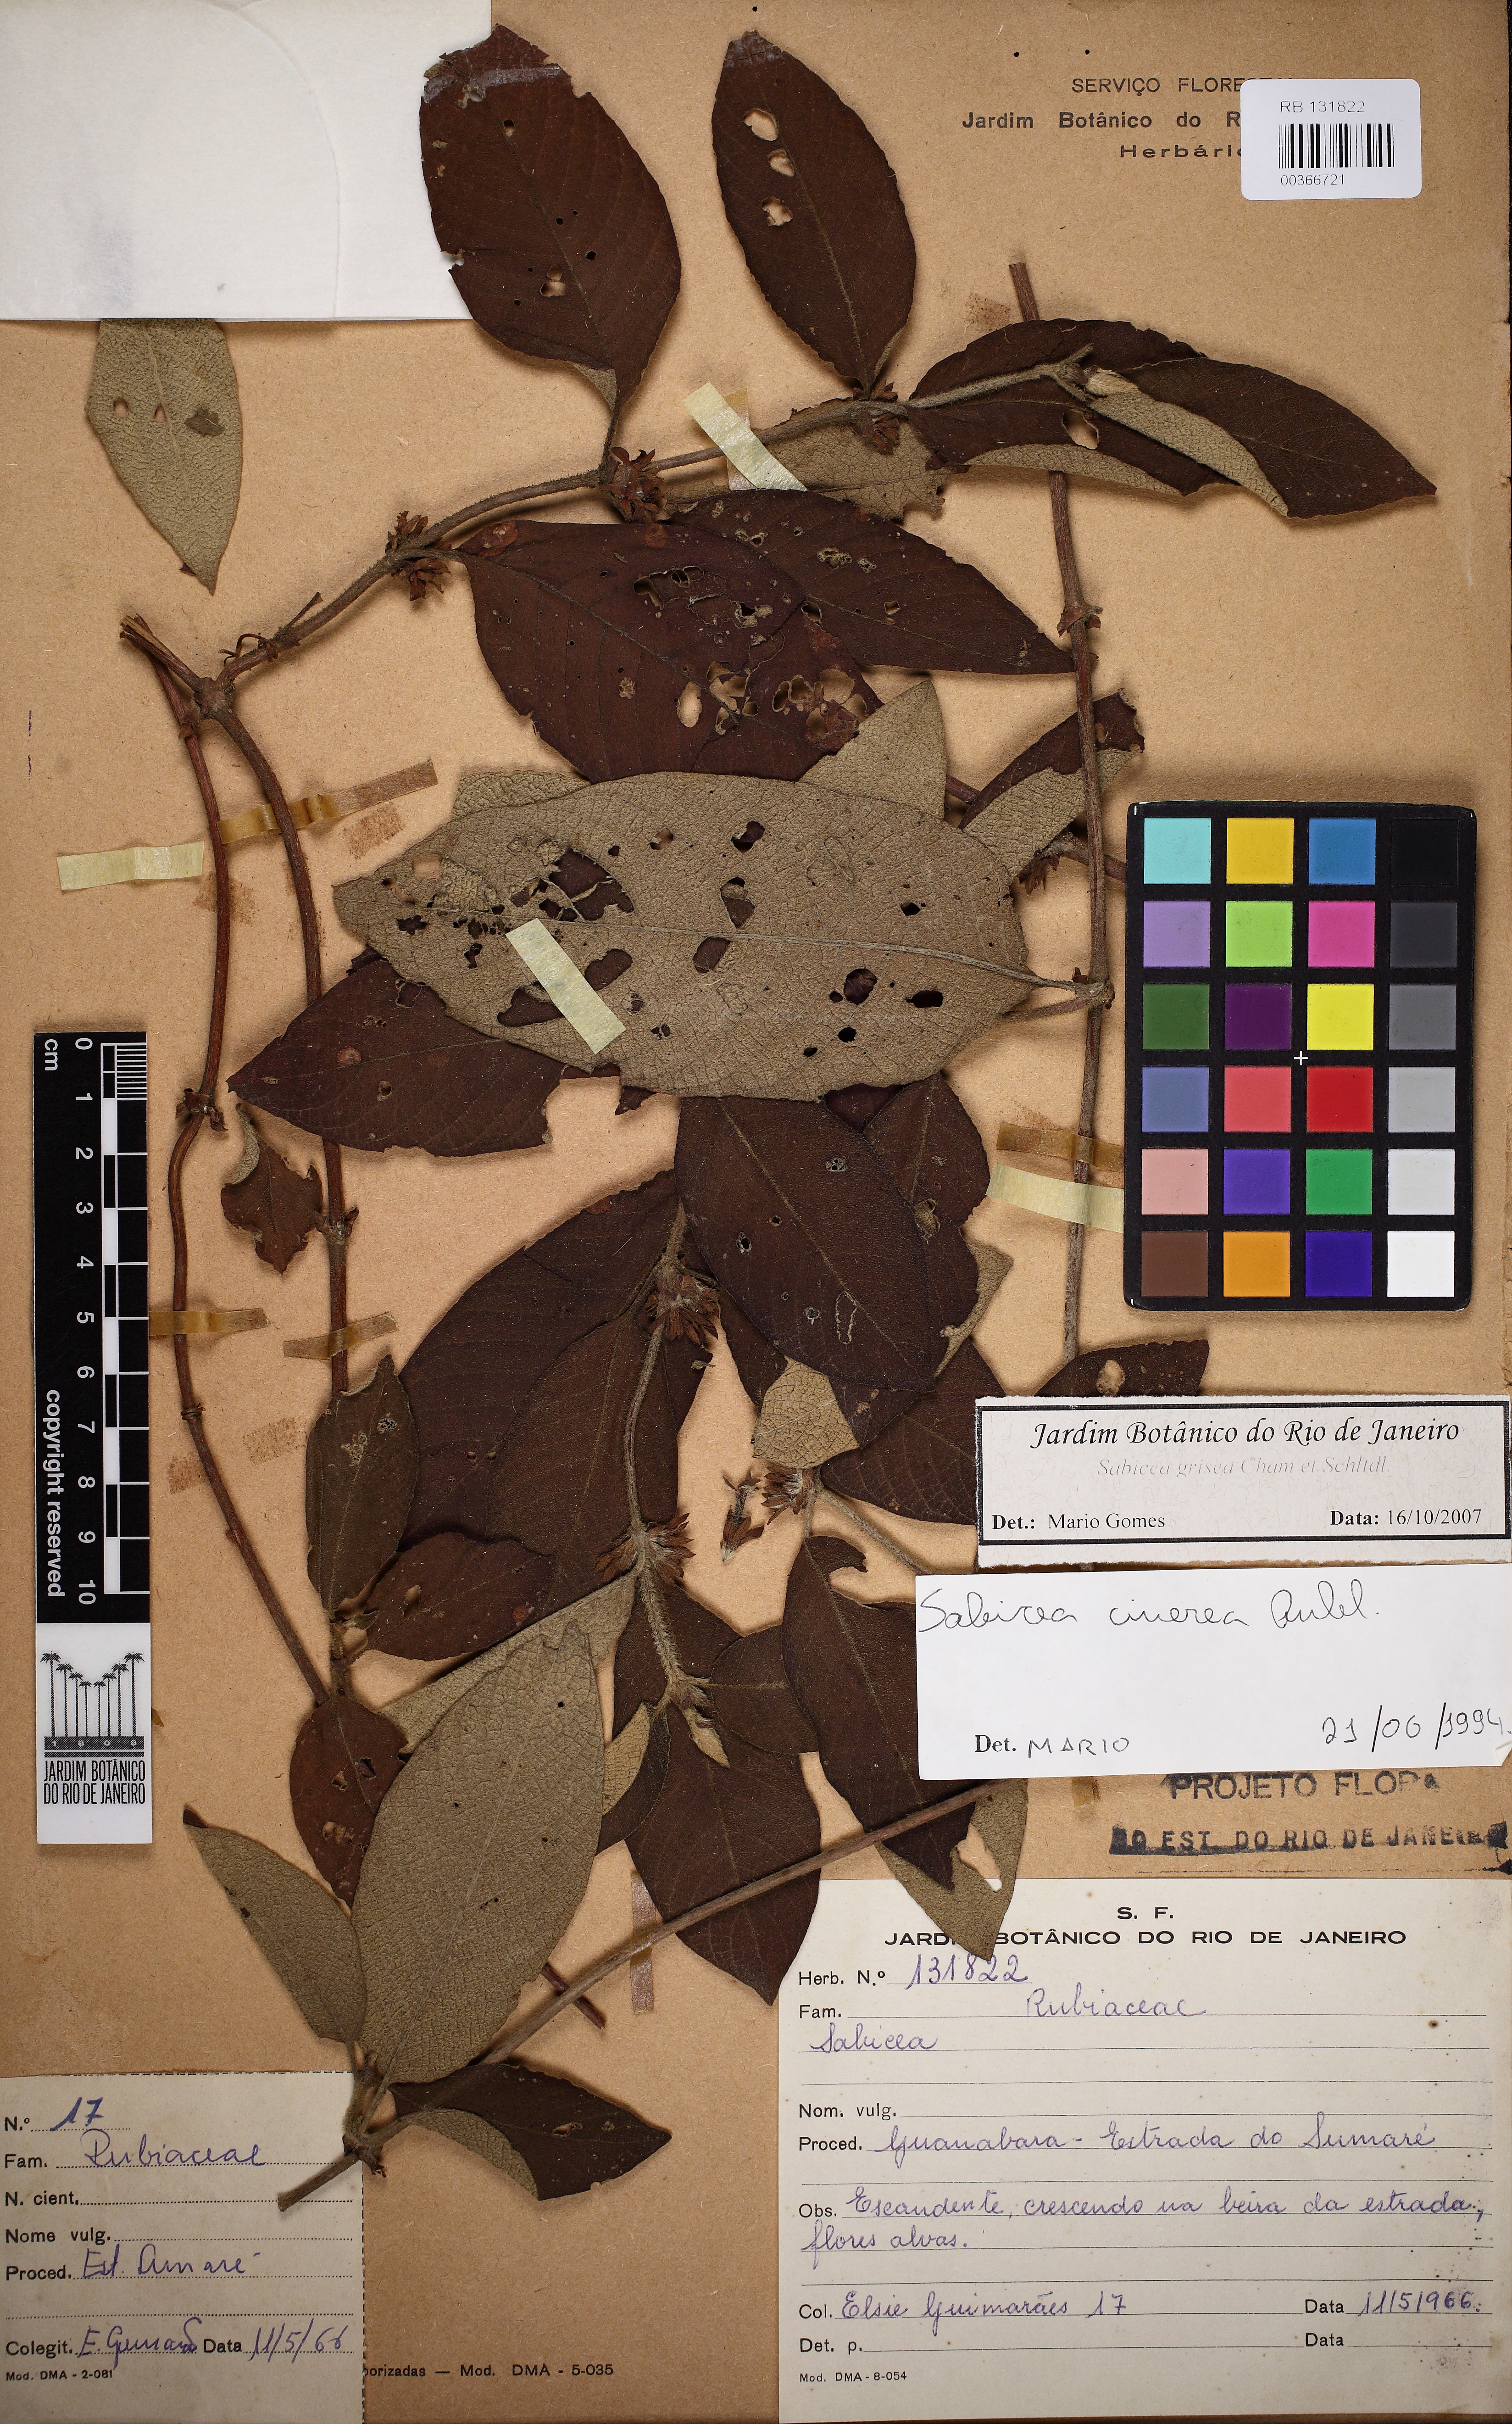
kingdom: Plantae
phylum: Tracheophyta
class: Magnoliopsida
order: Gentianales
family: Rubiaceae
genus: Sabicea
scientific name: Sabicea grisea
